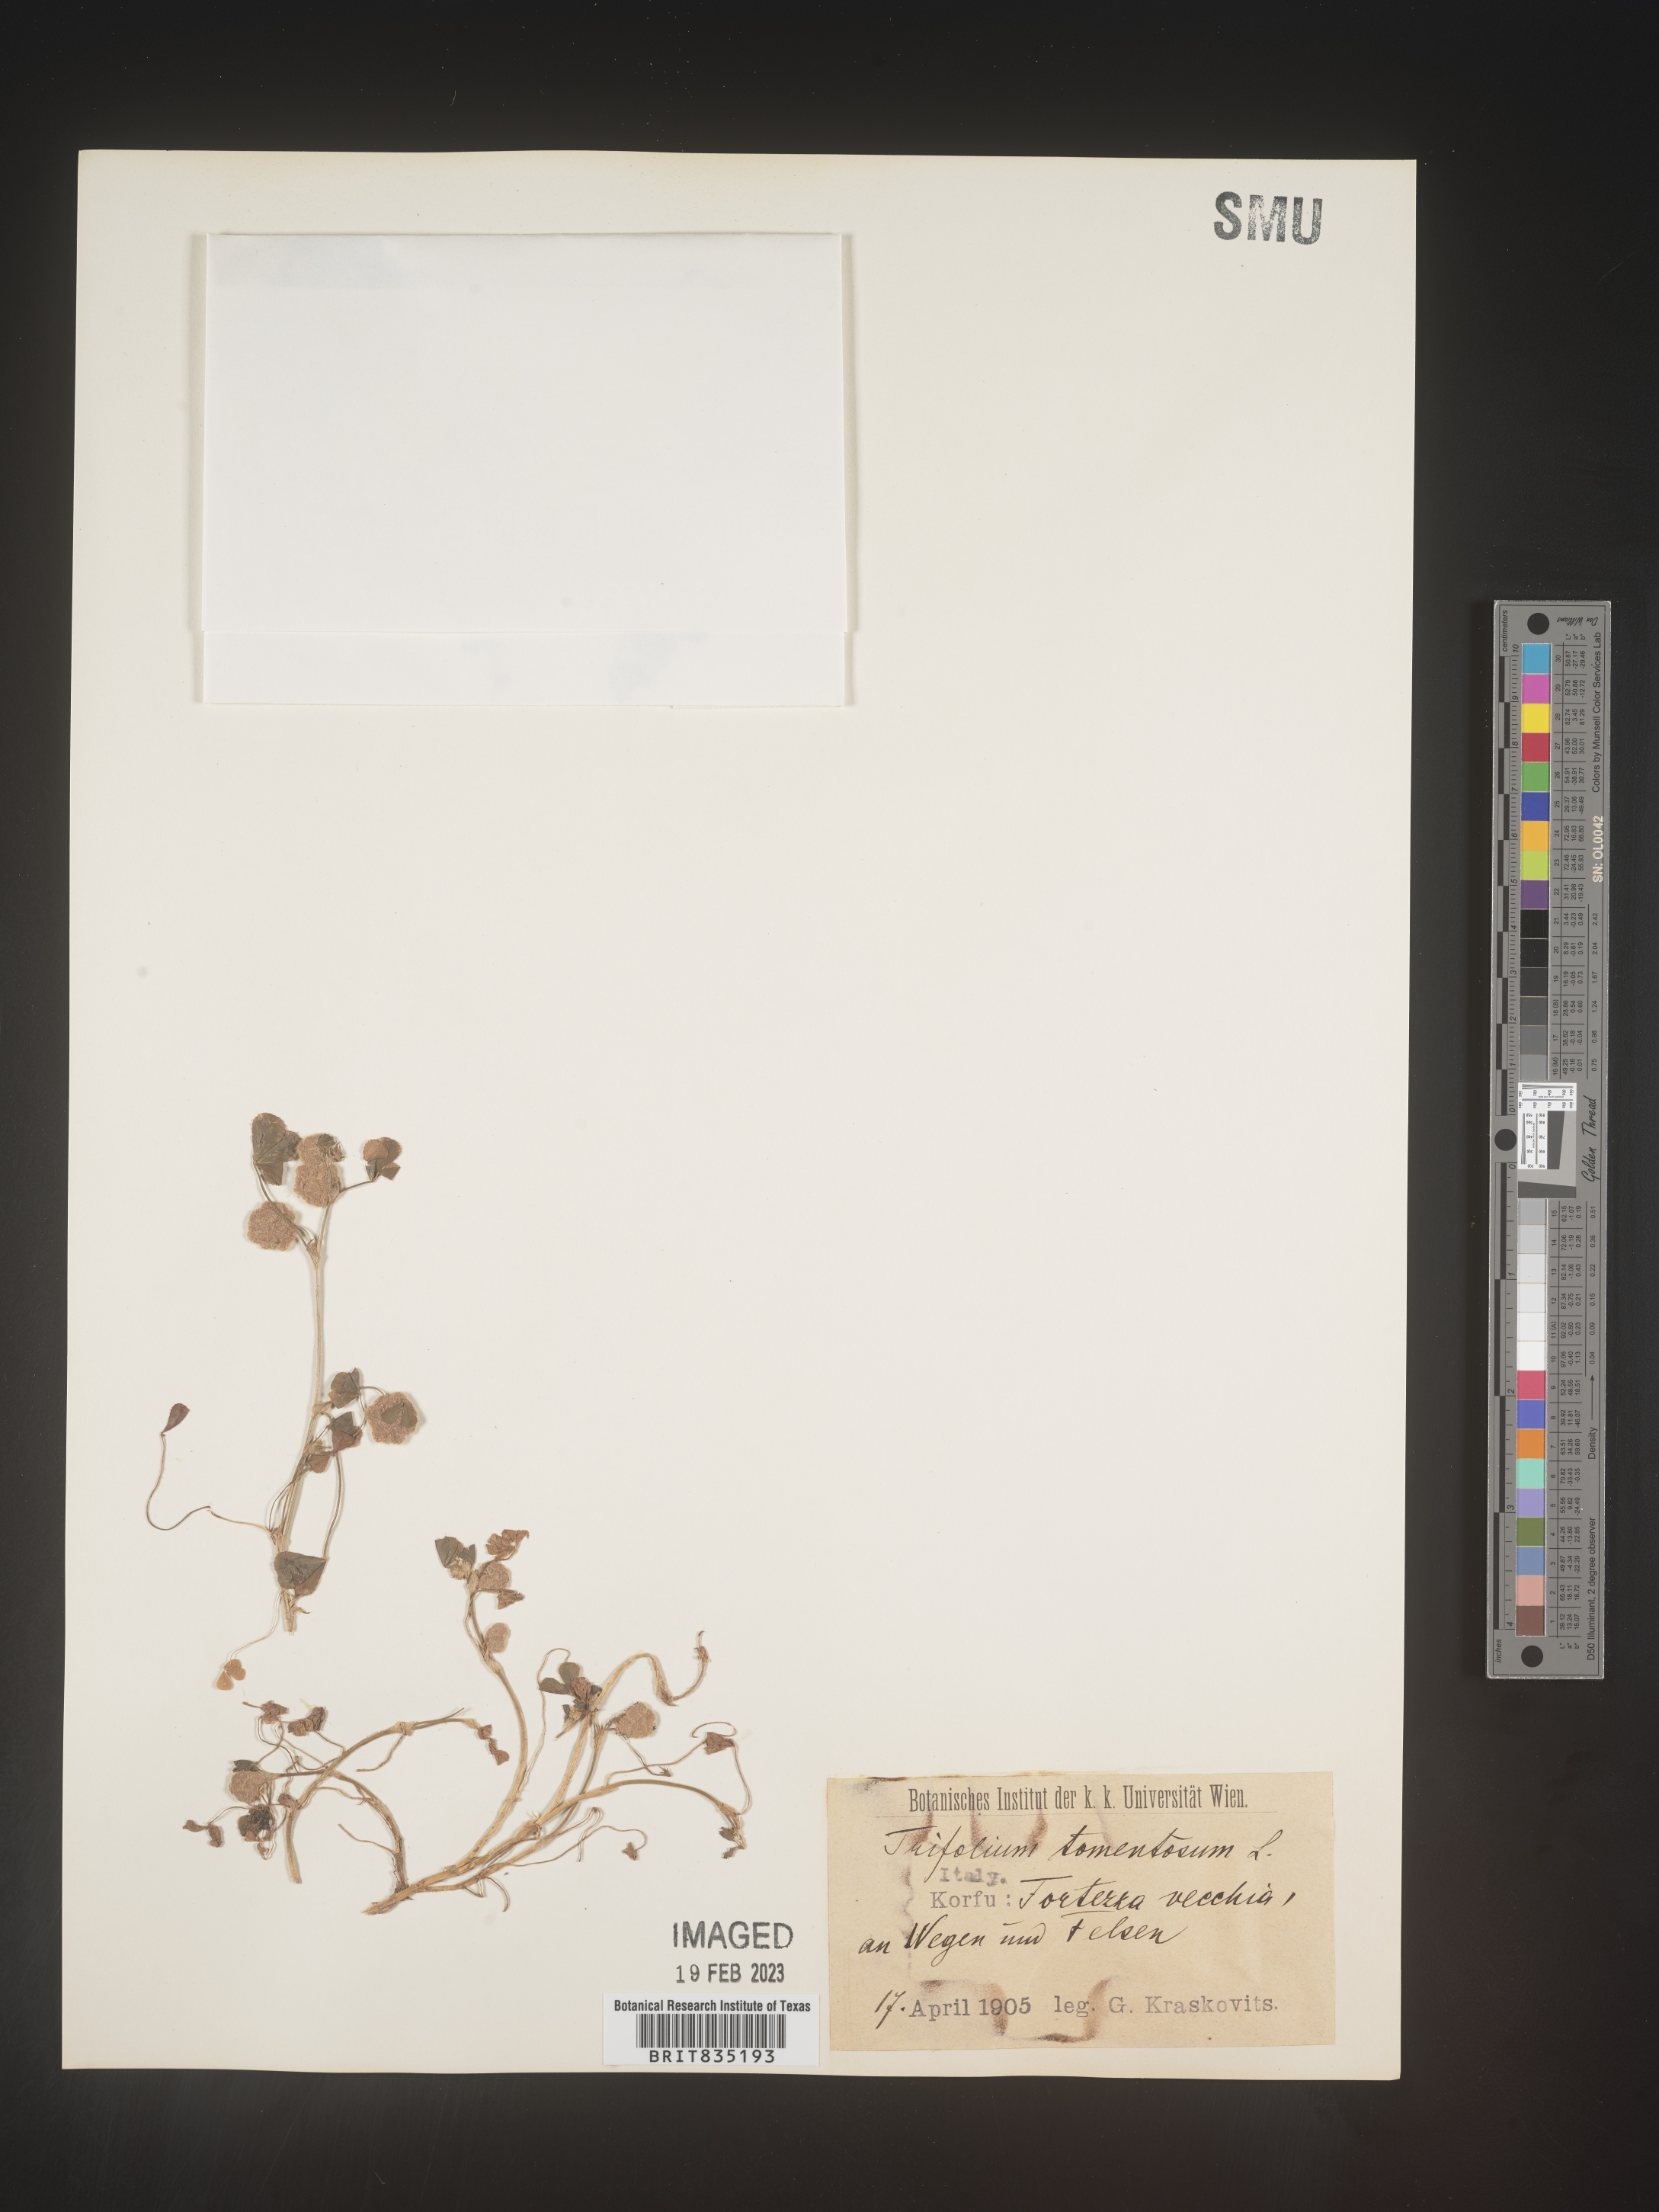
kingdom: Plantae
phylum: Tracheophyta
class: Magnoliopsida
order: Fabales
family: Fabaceae
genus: Trifolium
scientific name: Trifolium
